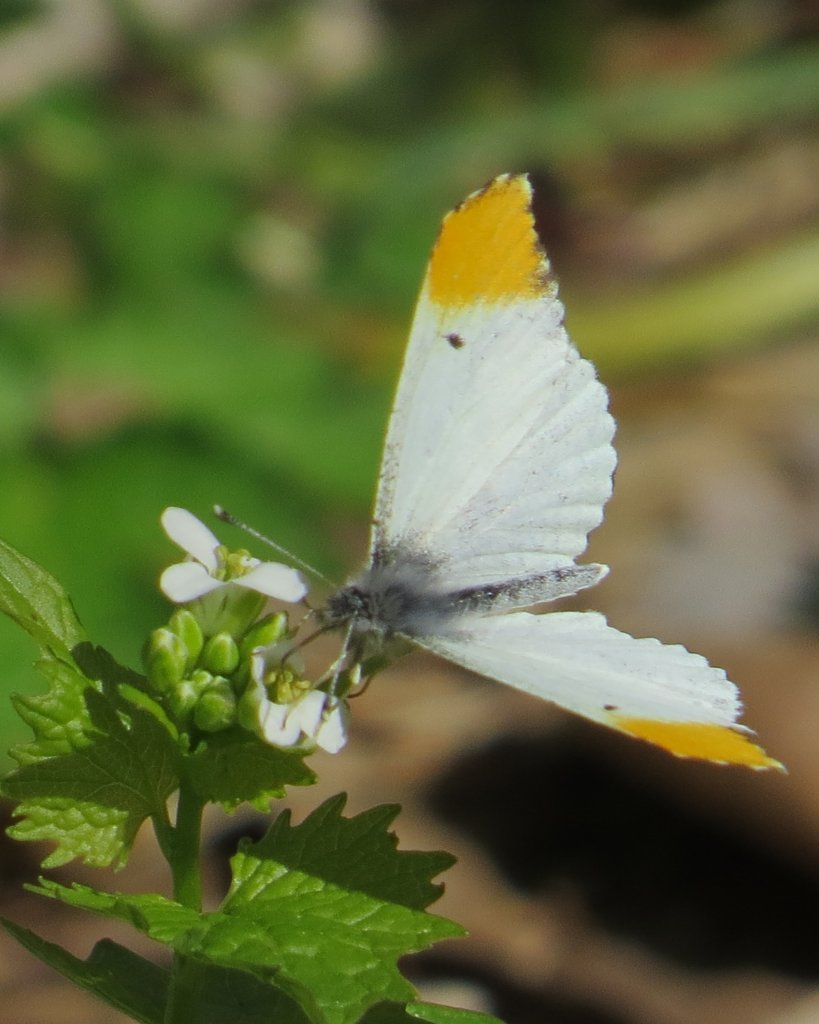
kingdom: Animalia
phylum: Arthropoda
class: Insecta
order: Lepidoptera
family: Pieridae
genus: Anthocharis
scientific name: Anthocharis midea
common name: Falcate Orangetip
